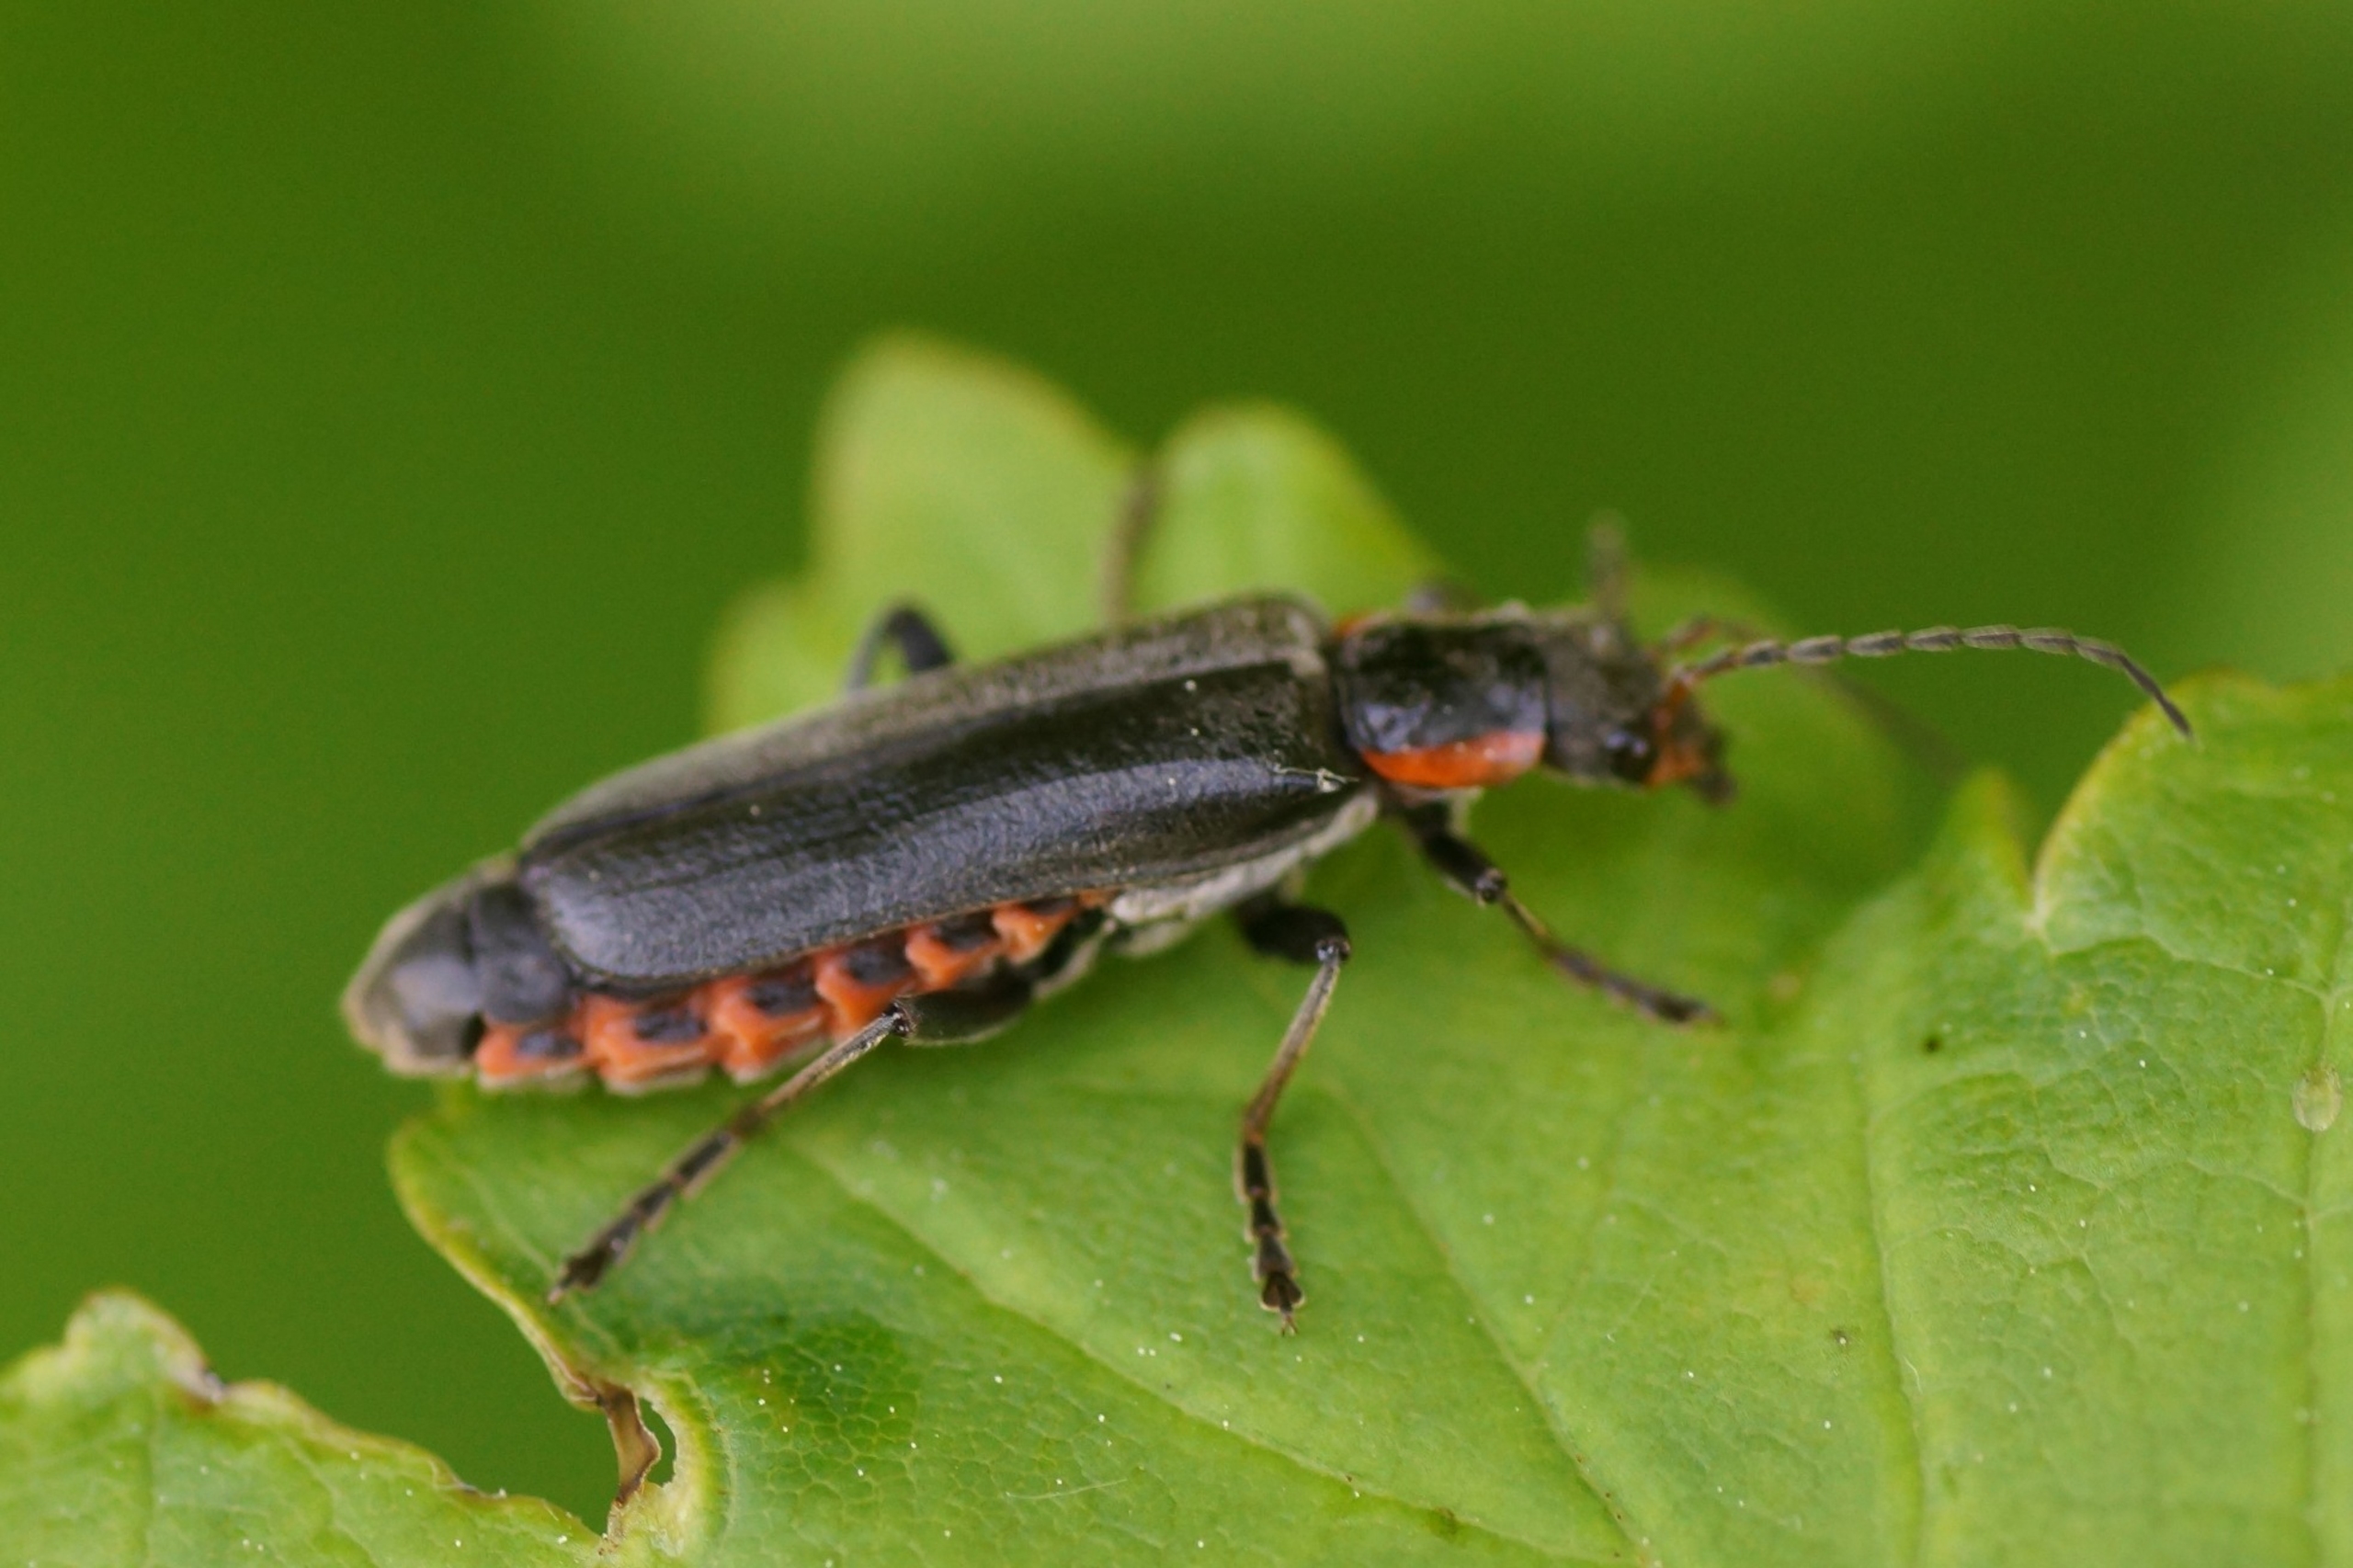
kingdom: Animalia
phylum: Arthropoda
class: Insecta
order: Coleoptera
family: Cantharidae
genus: Cantharis
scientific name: Cantharis obscura
